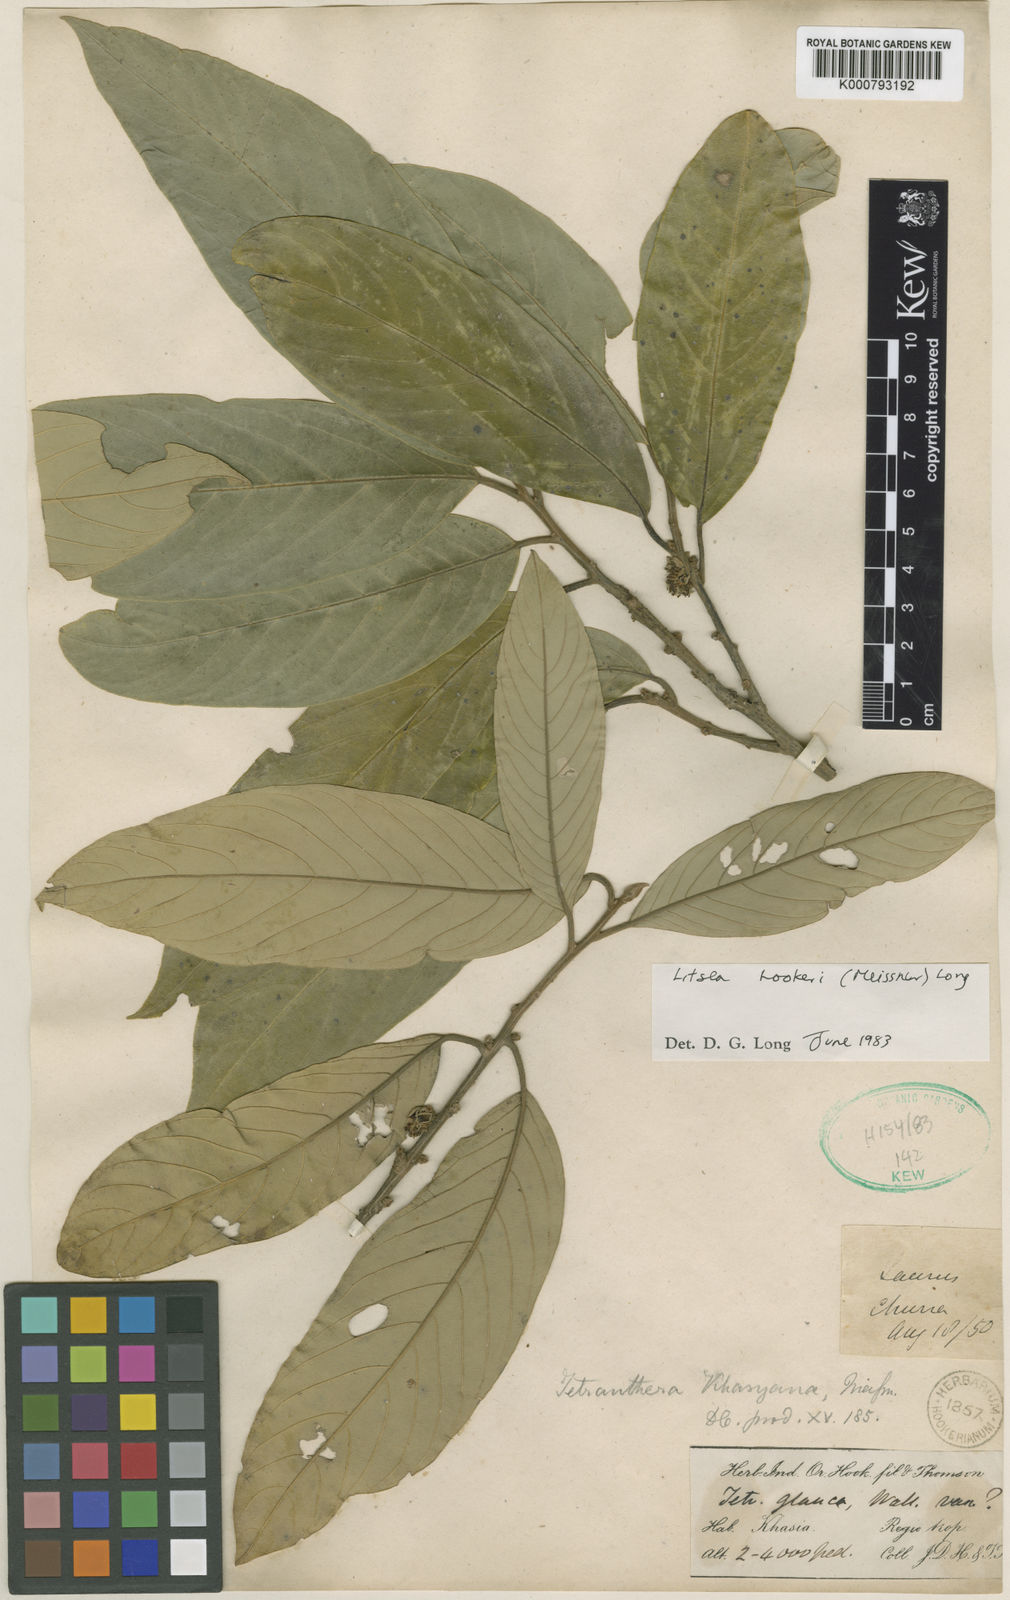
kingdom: Plantae
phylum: Tracheophyta
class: Magnoliopsida
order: Laurales
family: Lauraceae
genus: Litsea
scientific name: Litsea khasyana
